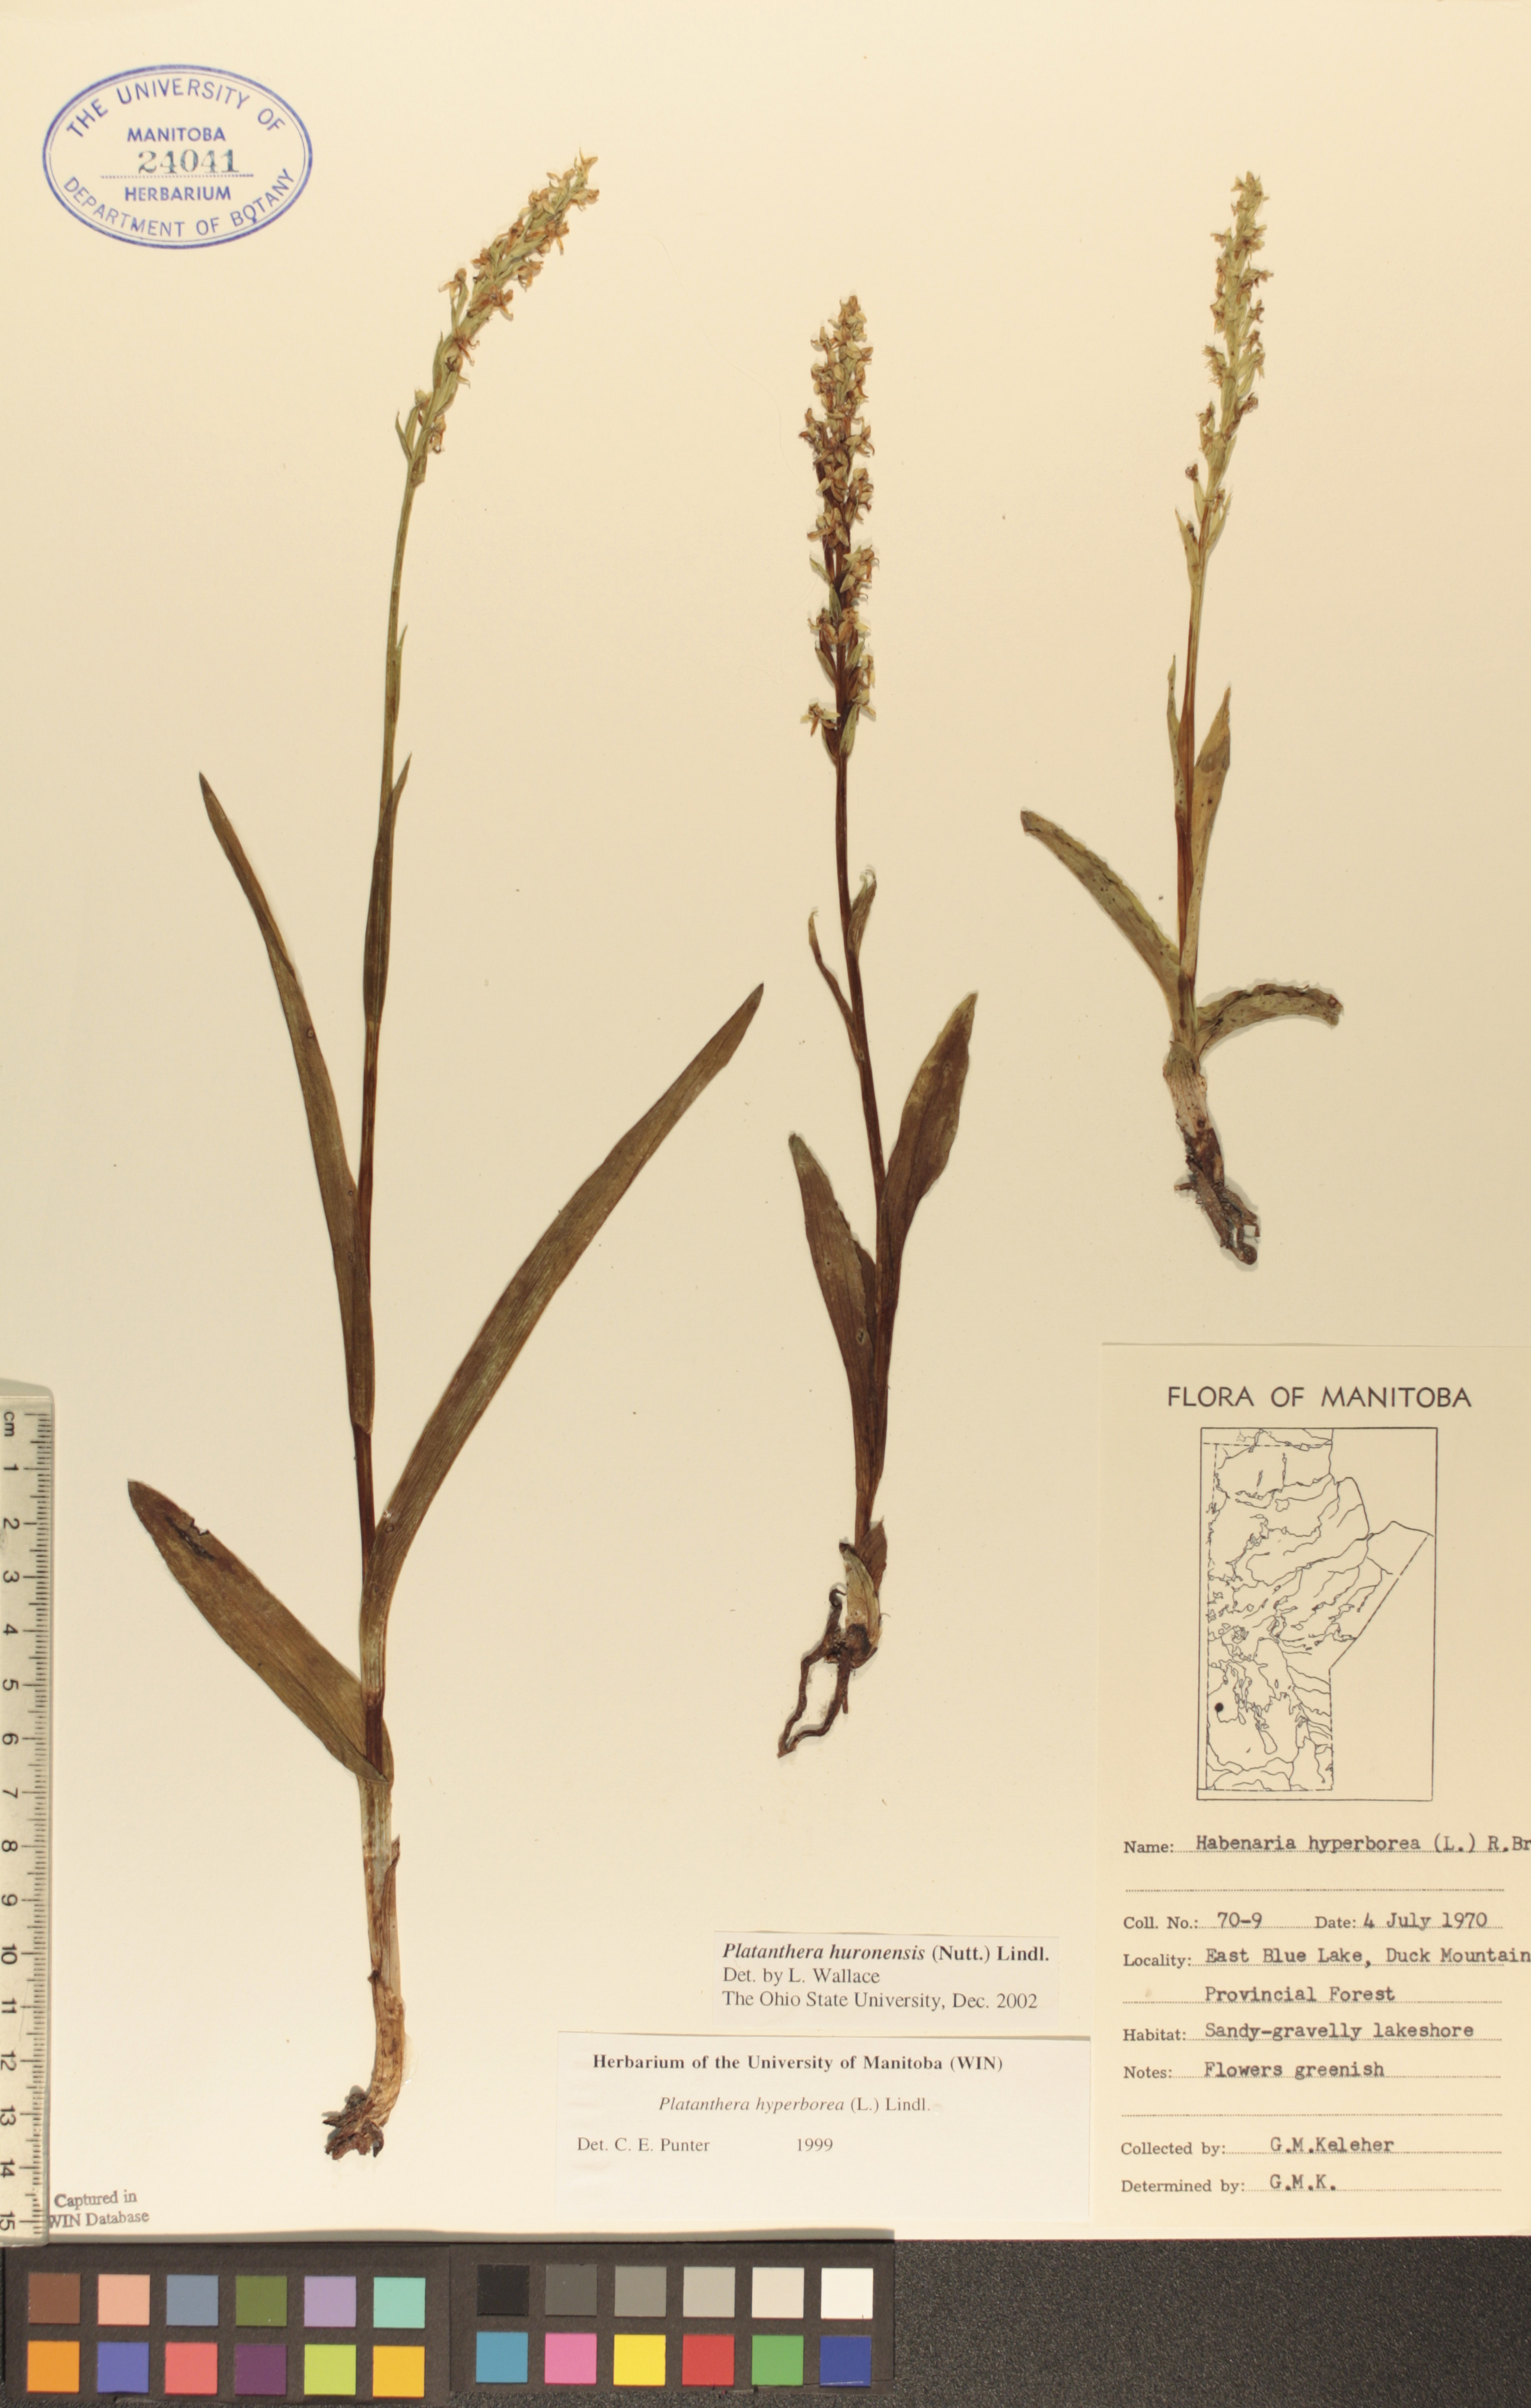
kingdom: Plantae
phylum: Tracheophyta
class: Liliopsida
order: Asparagales
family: Orchidaceae
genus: Platanthera
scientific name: Platanthera huronensis
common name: Fragrant green orchid
